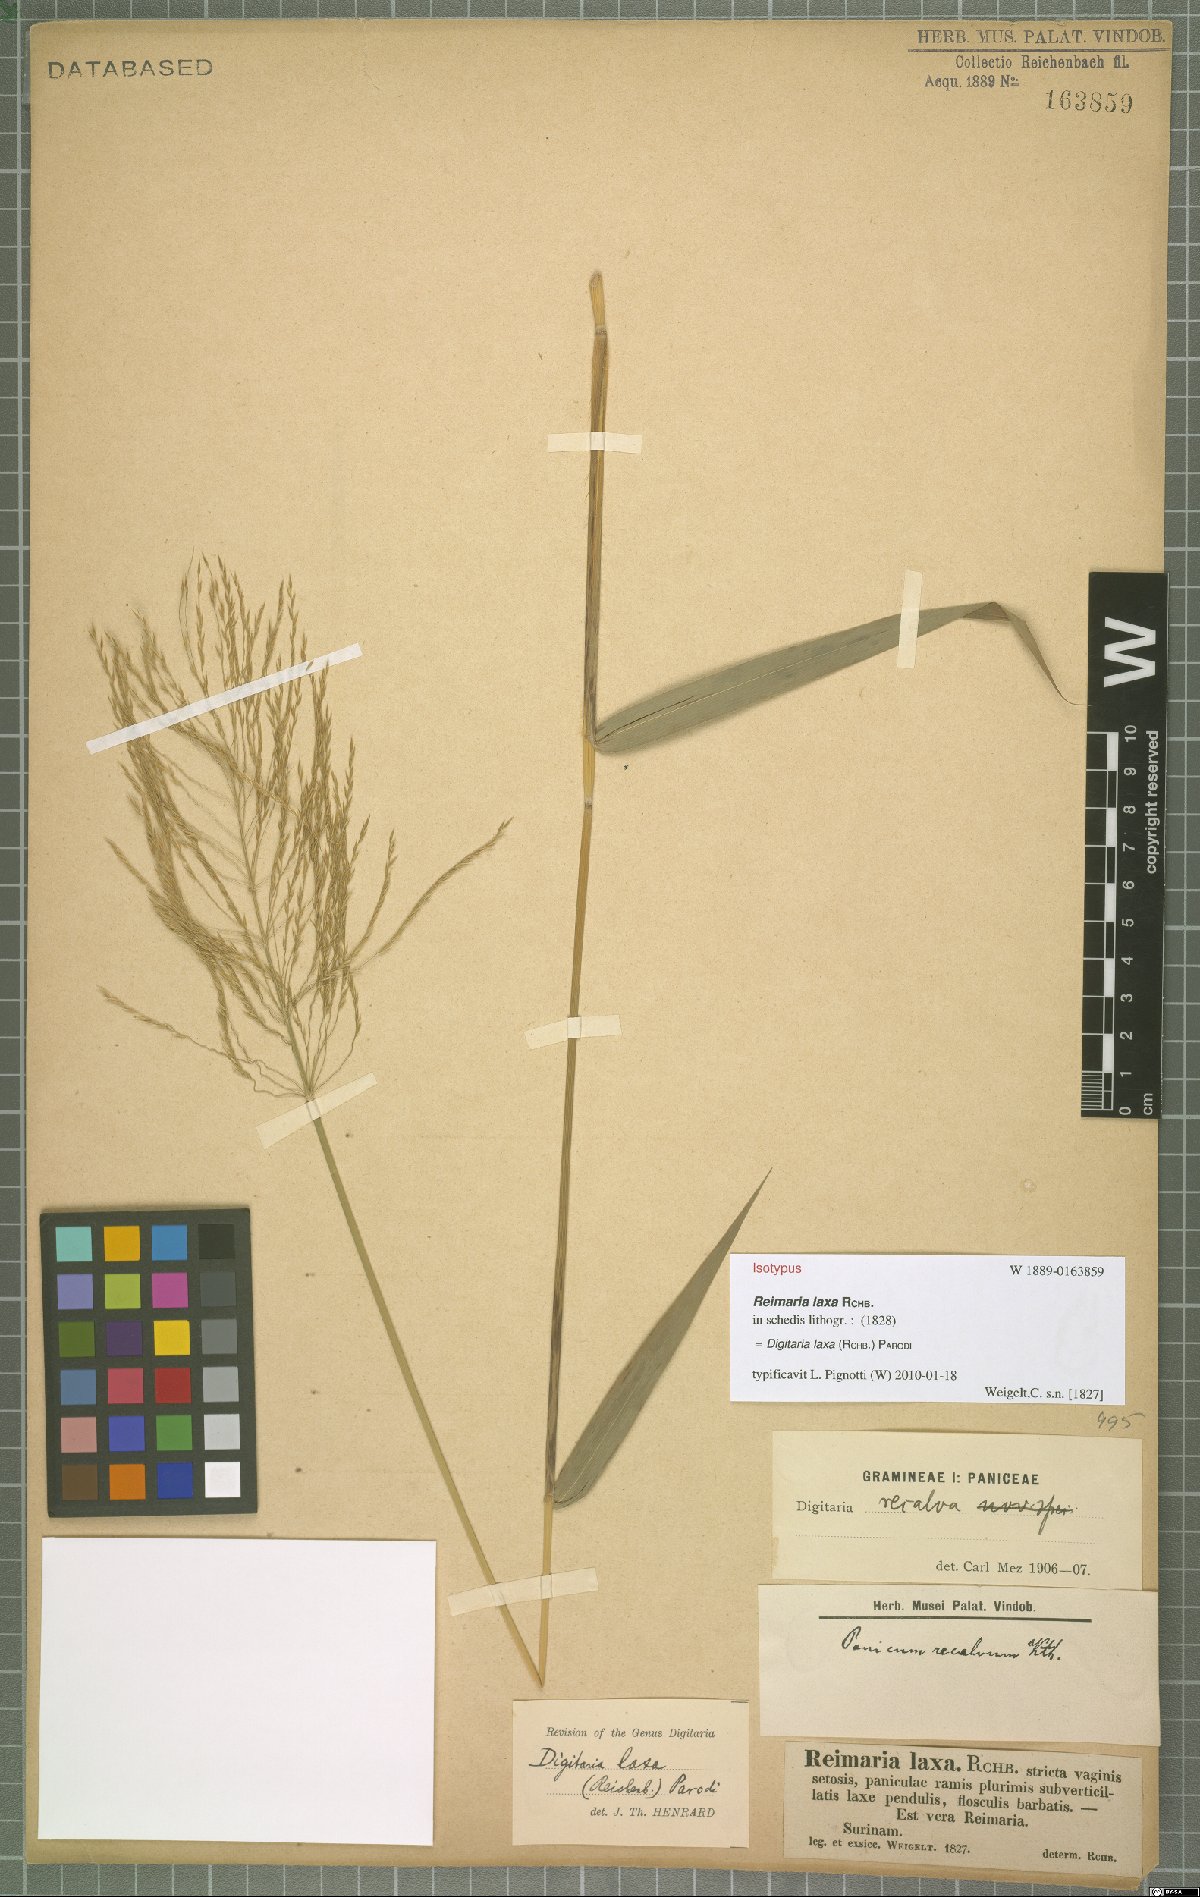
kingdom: Plantae
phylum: Tracheophyta
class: Liliopsida
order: Poales
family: Poaceae
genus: Digitaria
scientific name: Digitaria laxa
